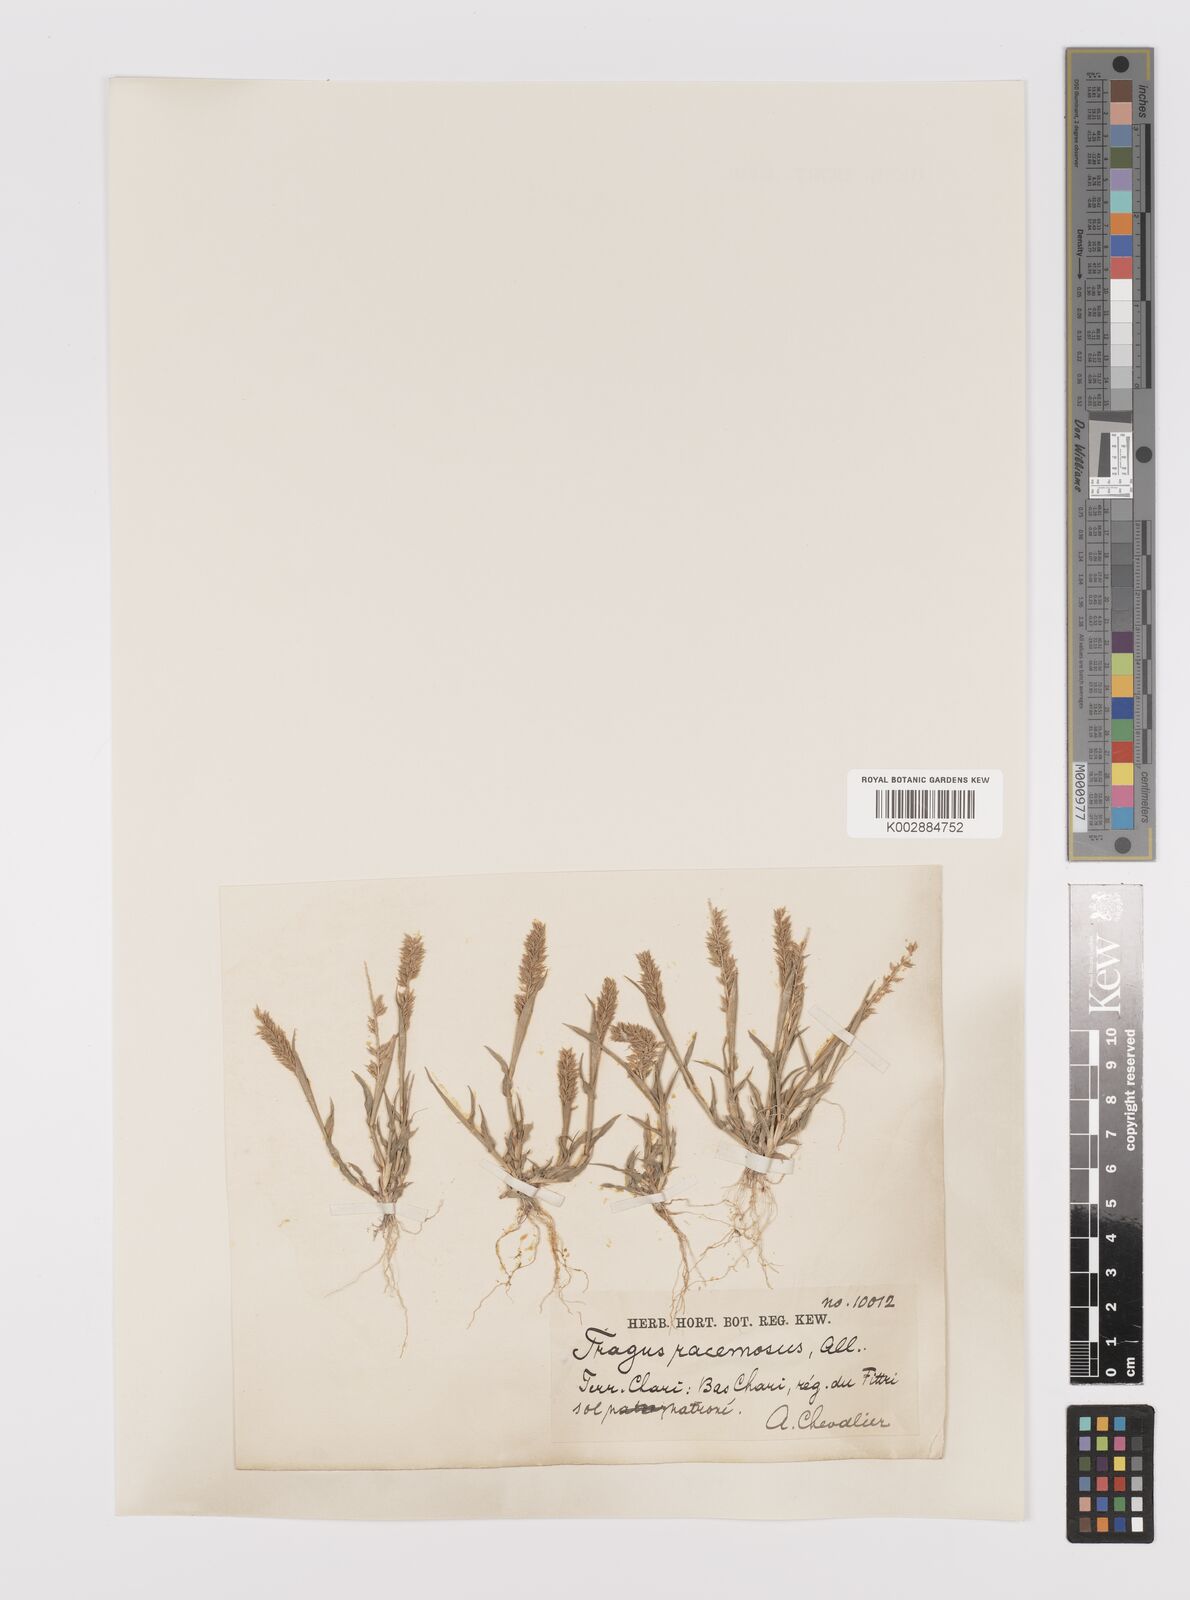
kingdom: Plantae
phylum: Tracheophyta
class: Liliopsida
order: Poales
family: Poaceae
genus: Tragus
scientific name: Tragus racemosus
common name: European bur-grass
